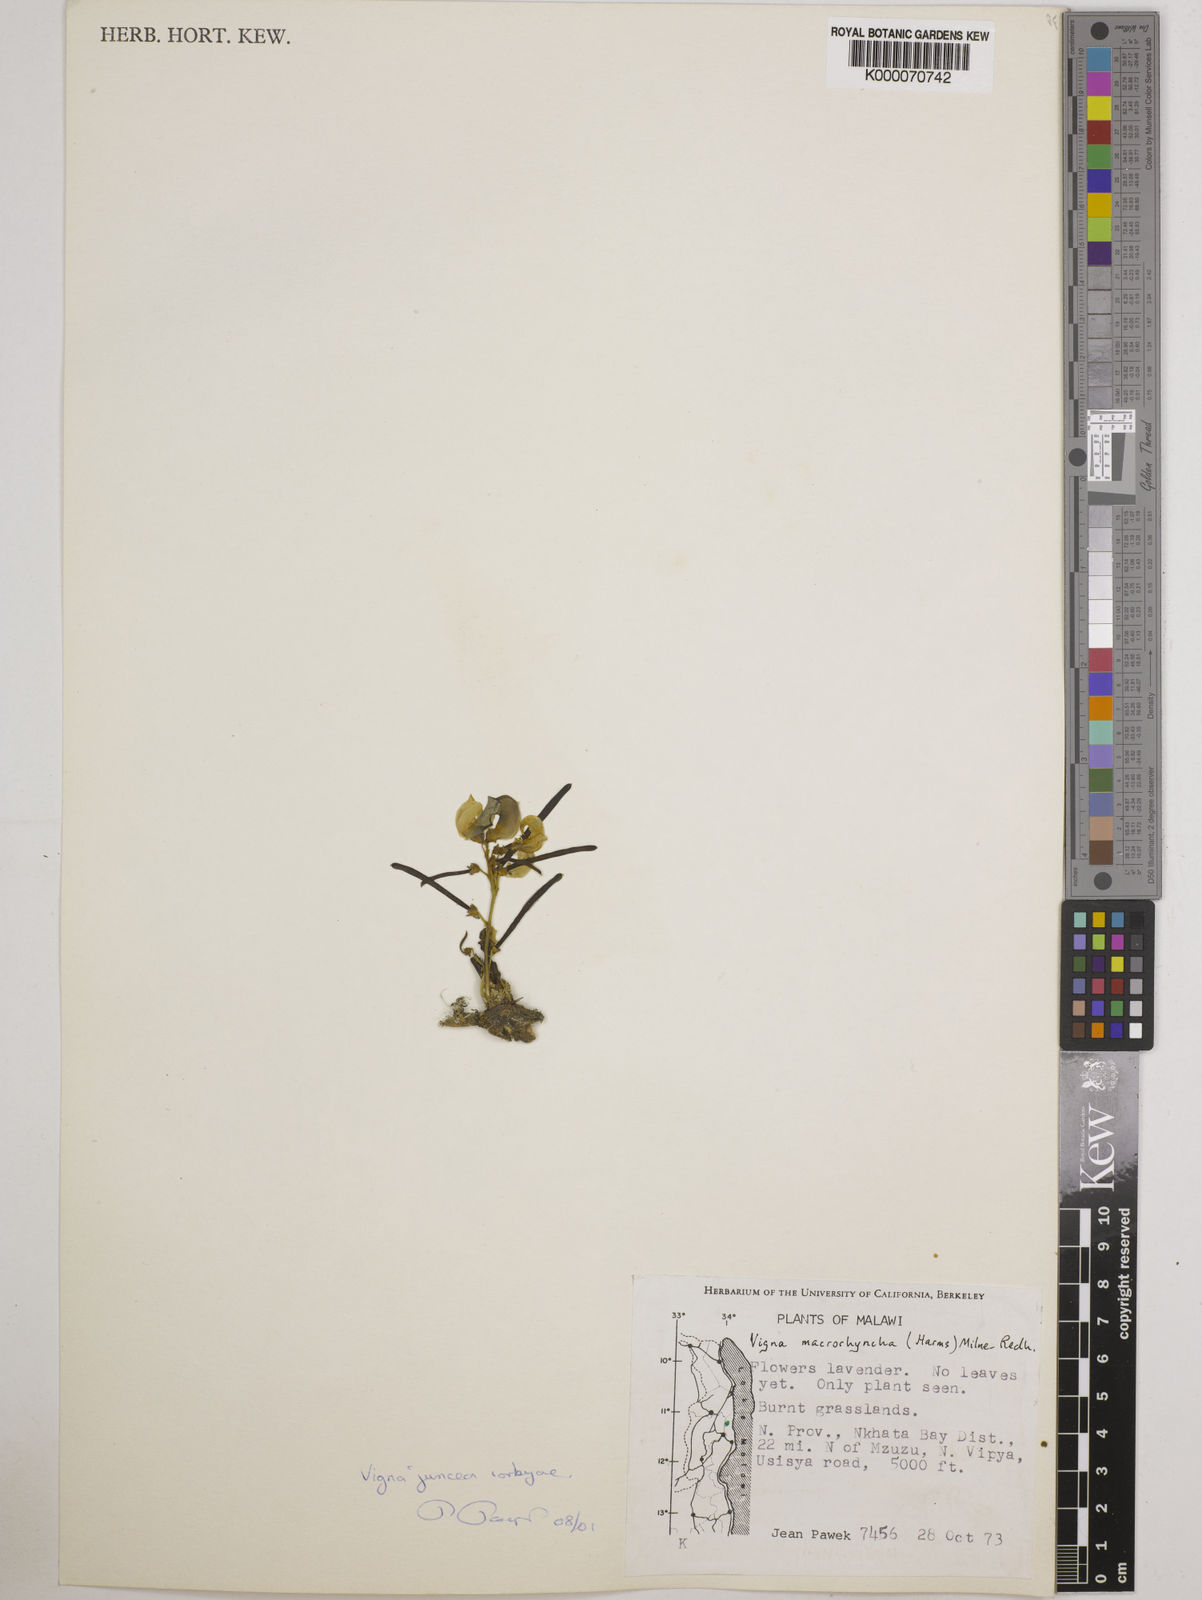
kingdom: Plantae
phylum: Tracheophyta
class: Magnoliopsida
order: Fabales
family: Fabaceae
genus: Vigna
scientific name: Vigna juncea
